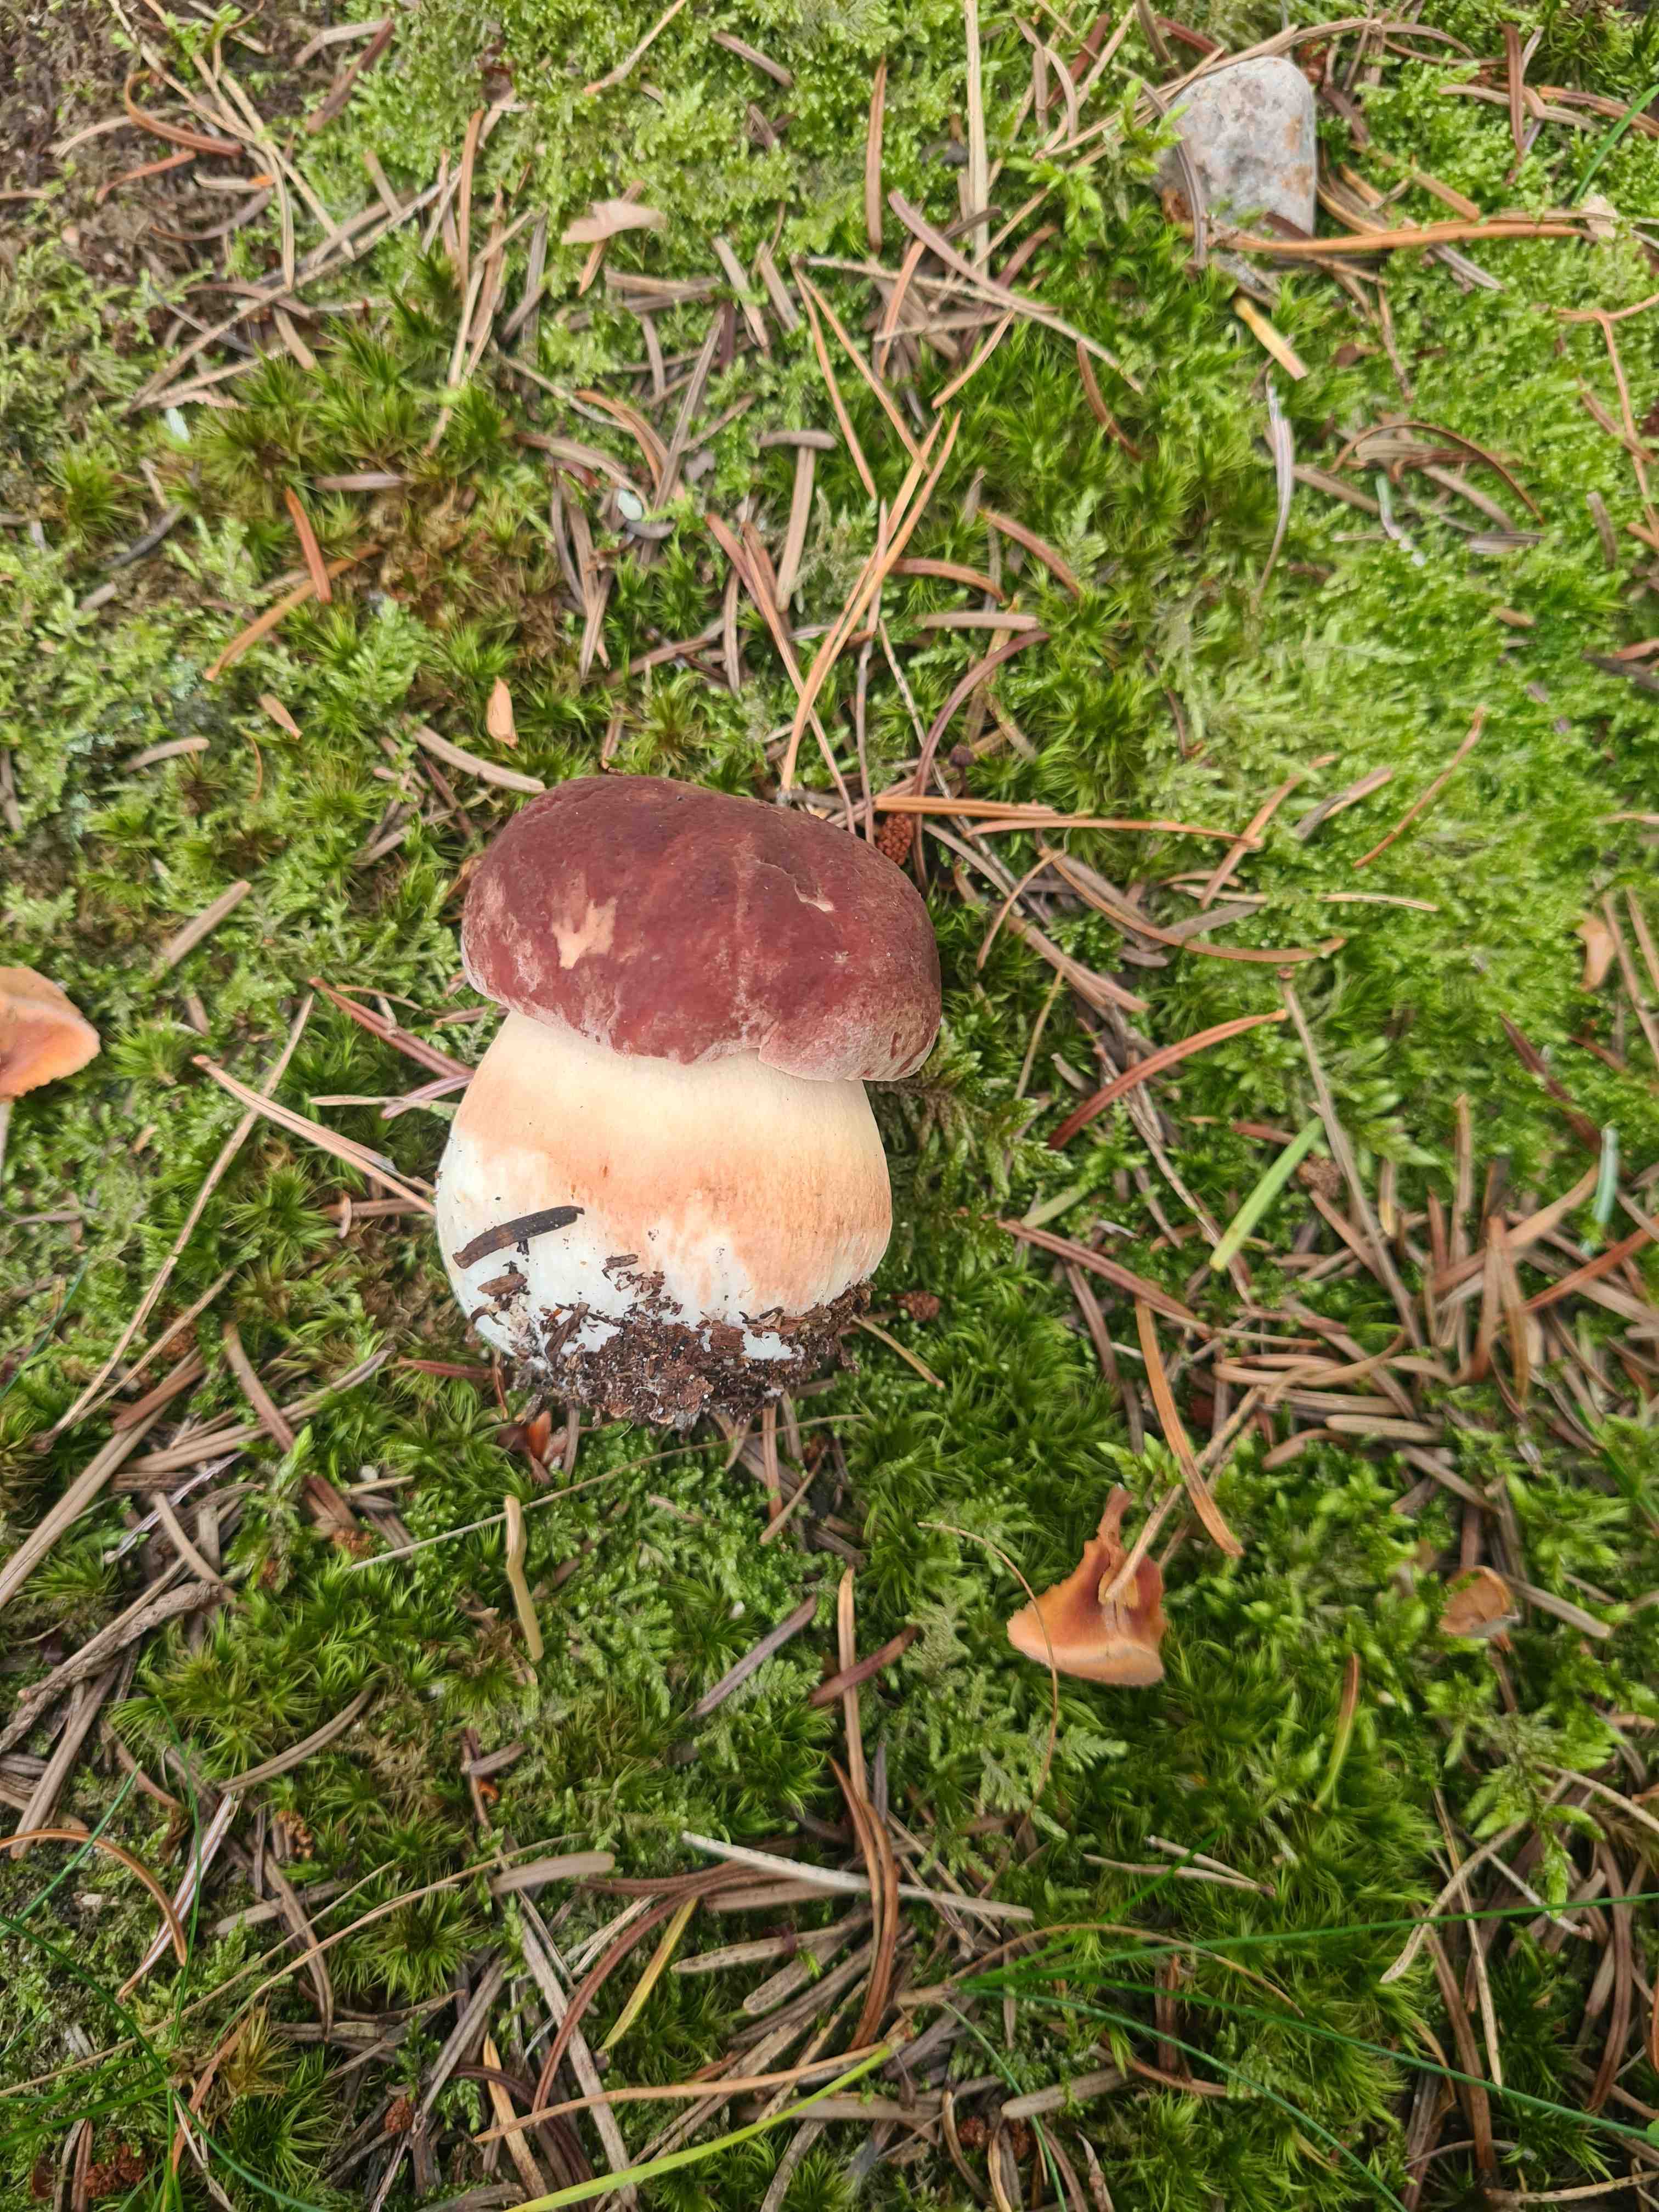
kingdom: Fungi
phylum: Basidiomycota
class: Agaricomycetes
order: Boletales
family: Boletaceae
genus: Boletus
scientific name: Boletus pinophilus
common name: rødbrun rørhat
